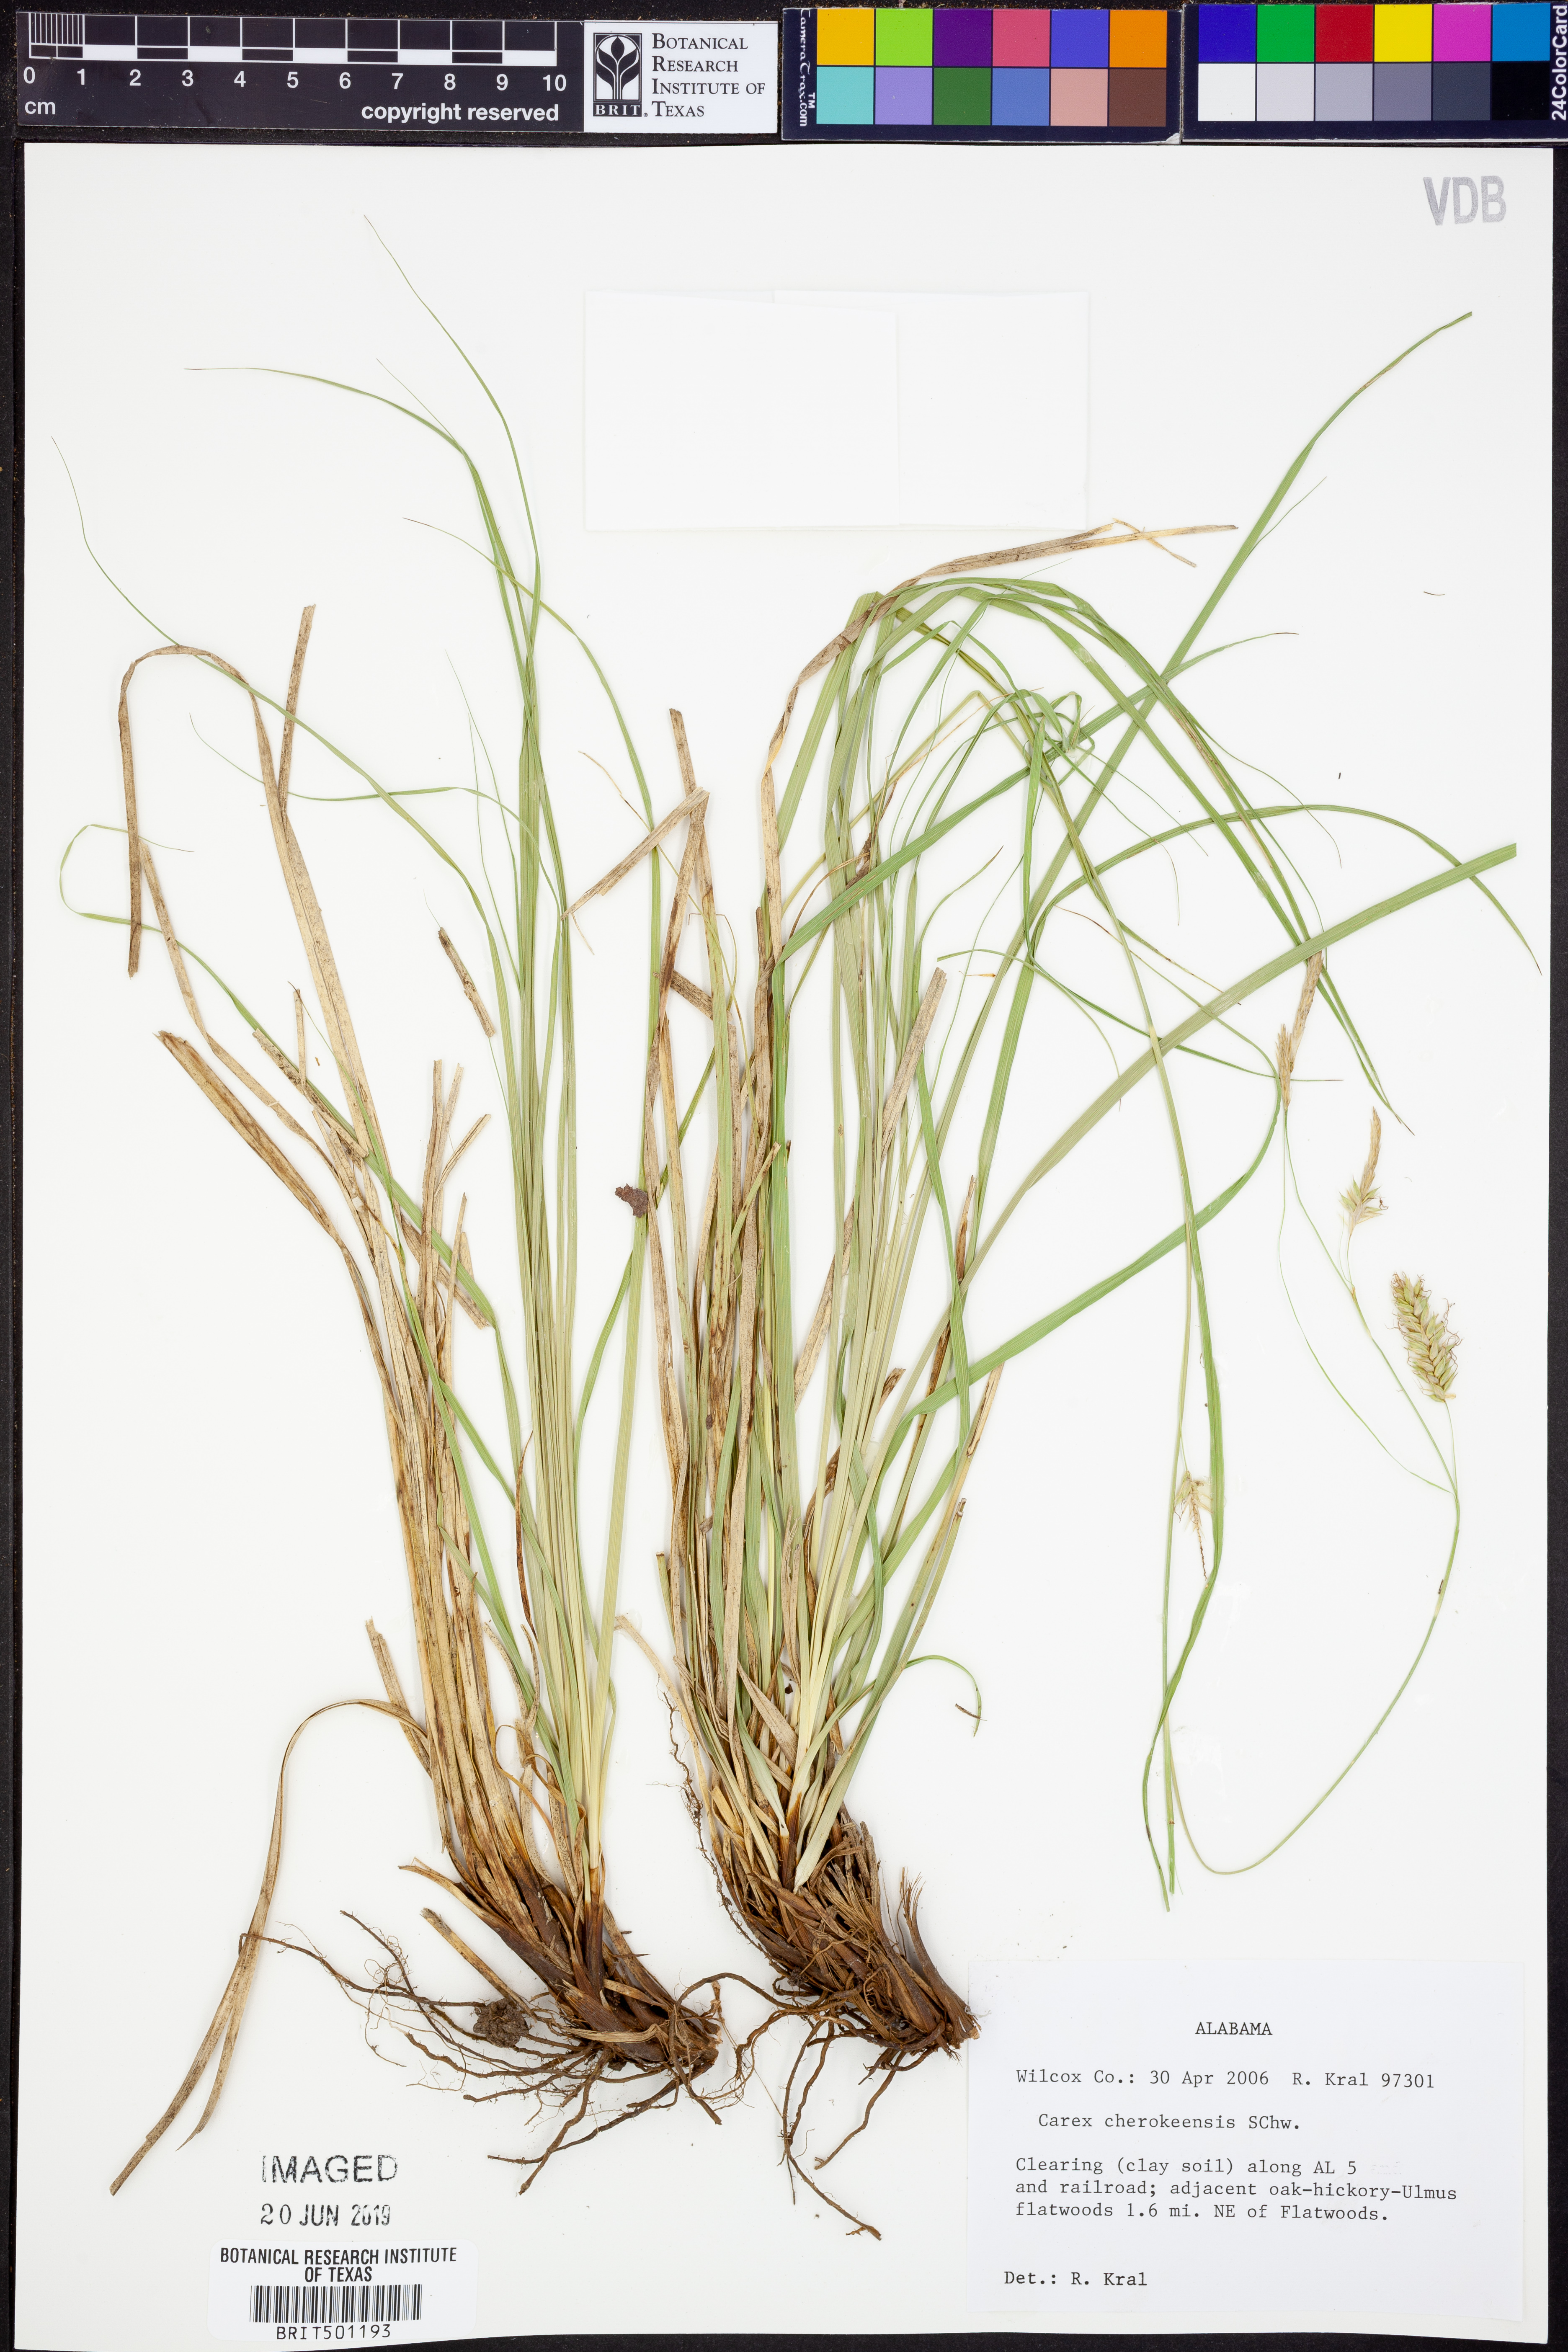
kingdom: Plantae
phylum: Tracheophyta
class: Liliopsida
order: Poales
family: Cyperaceae
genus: Carex
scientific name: Carex cherokeensis
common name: Cherokee sedge
